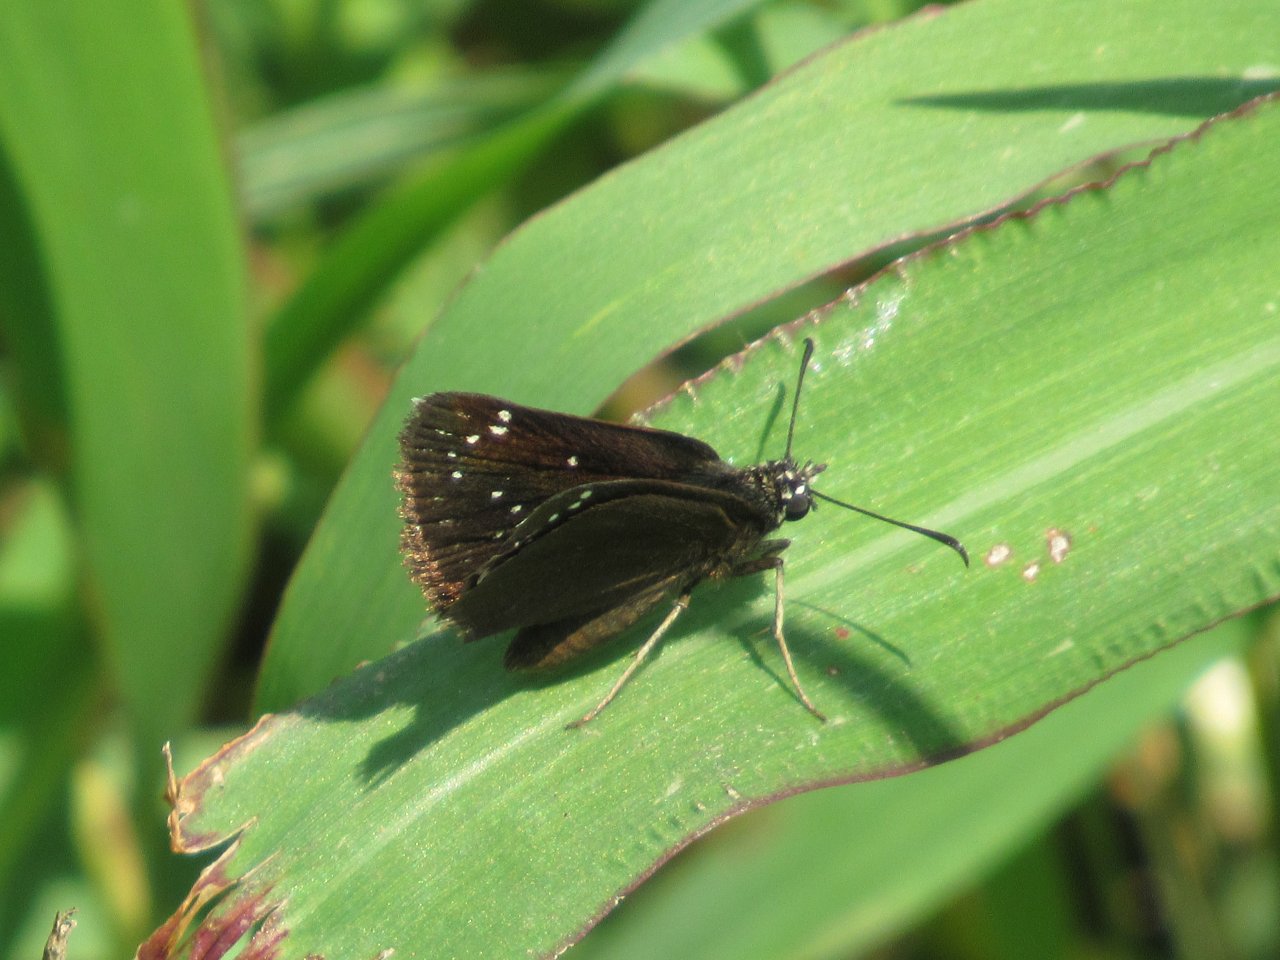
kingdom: Animalia
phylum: Arthropoda
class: Insecta
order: Lepidoptera
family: Hesperiidae
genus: Pholisora
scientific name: Pholisora catullus
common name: Common Sootywing
